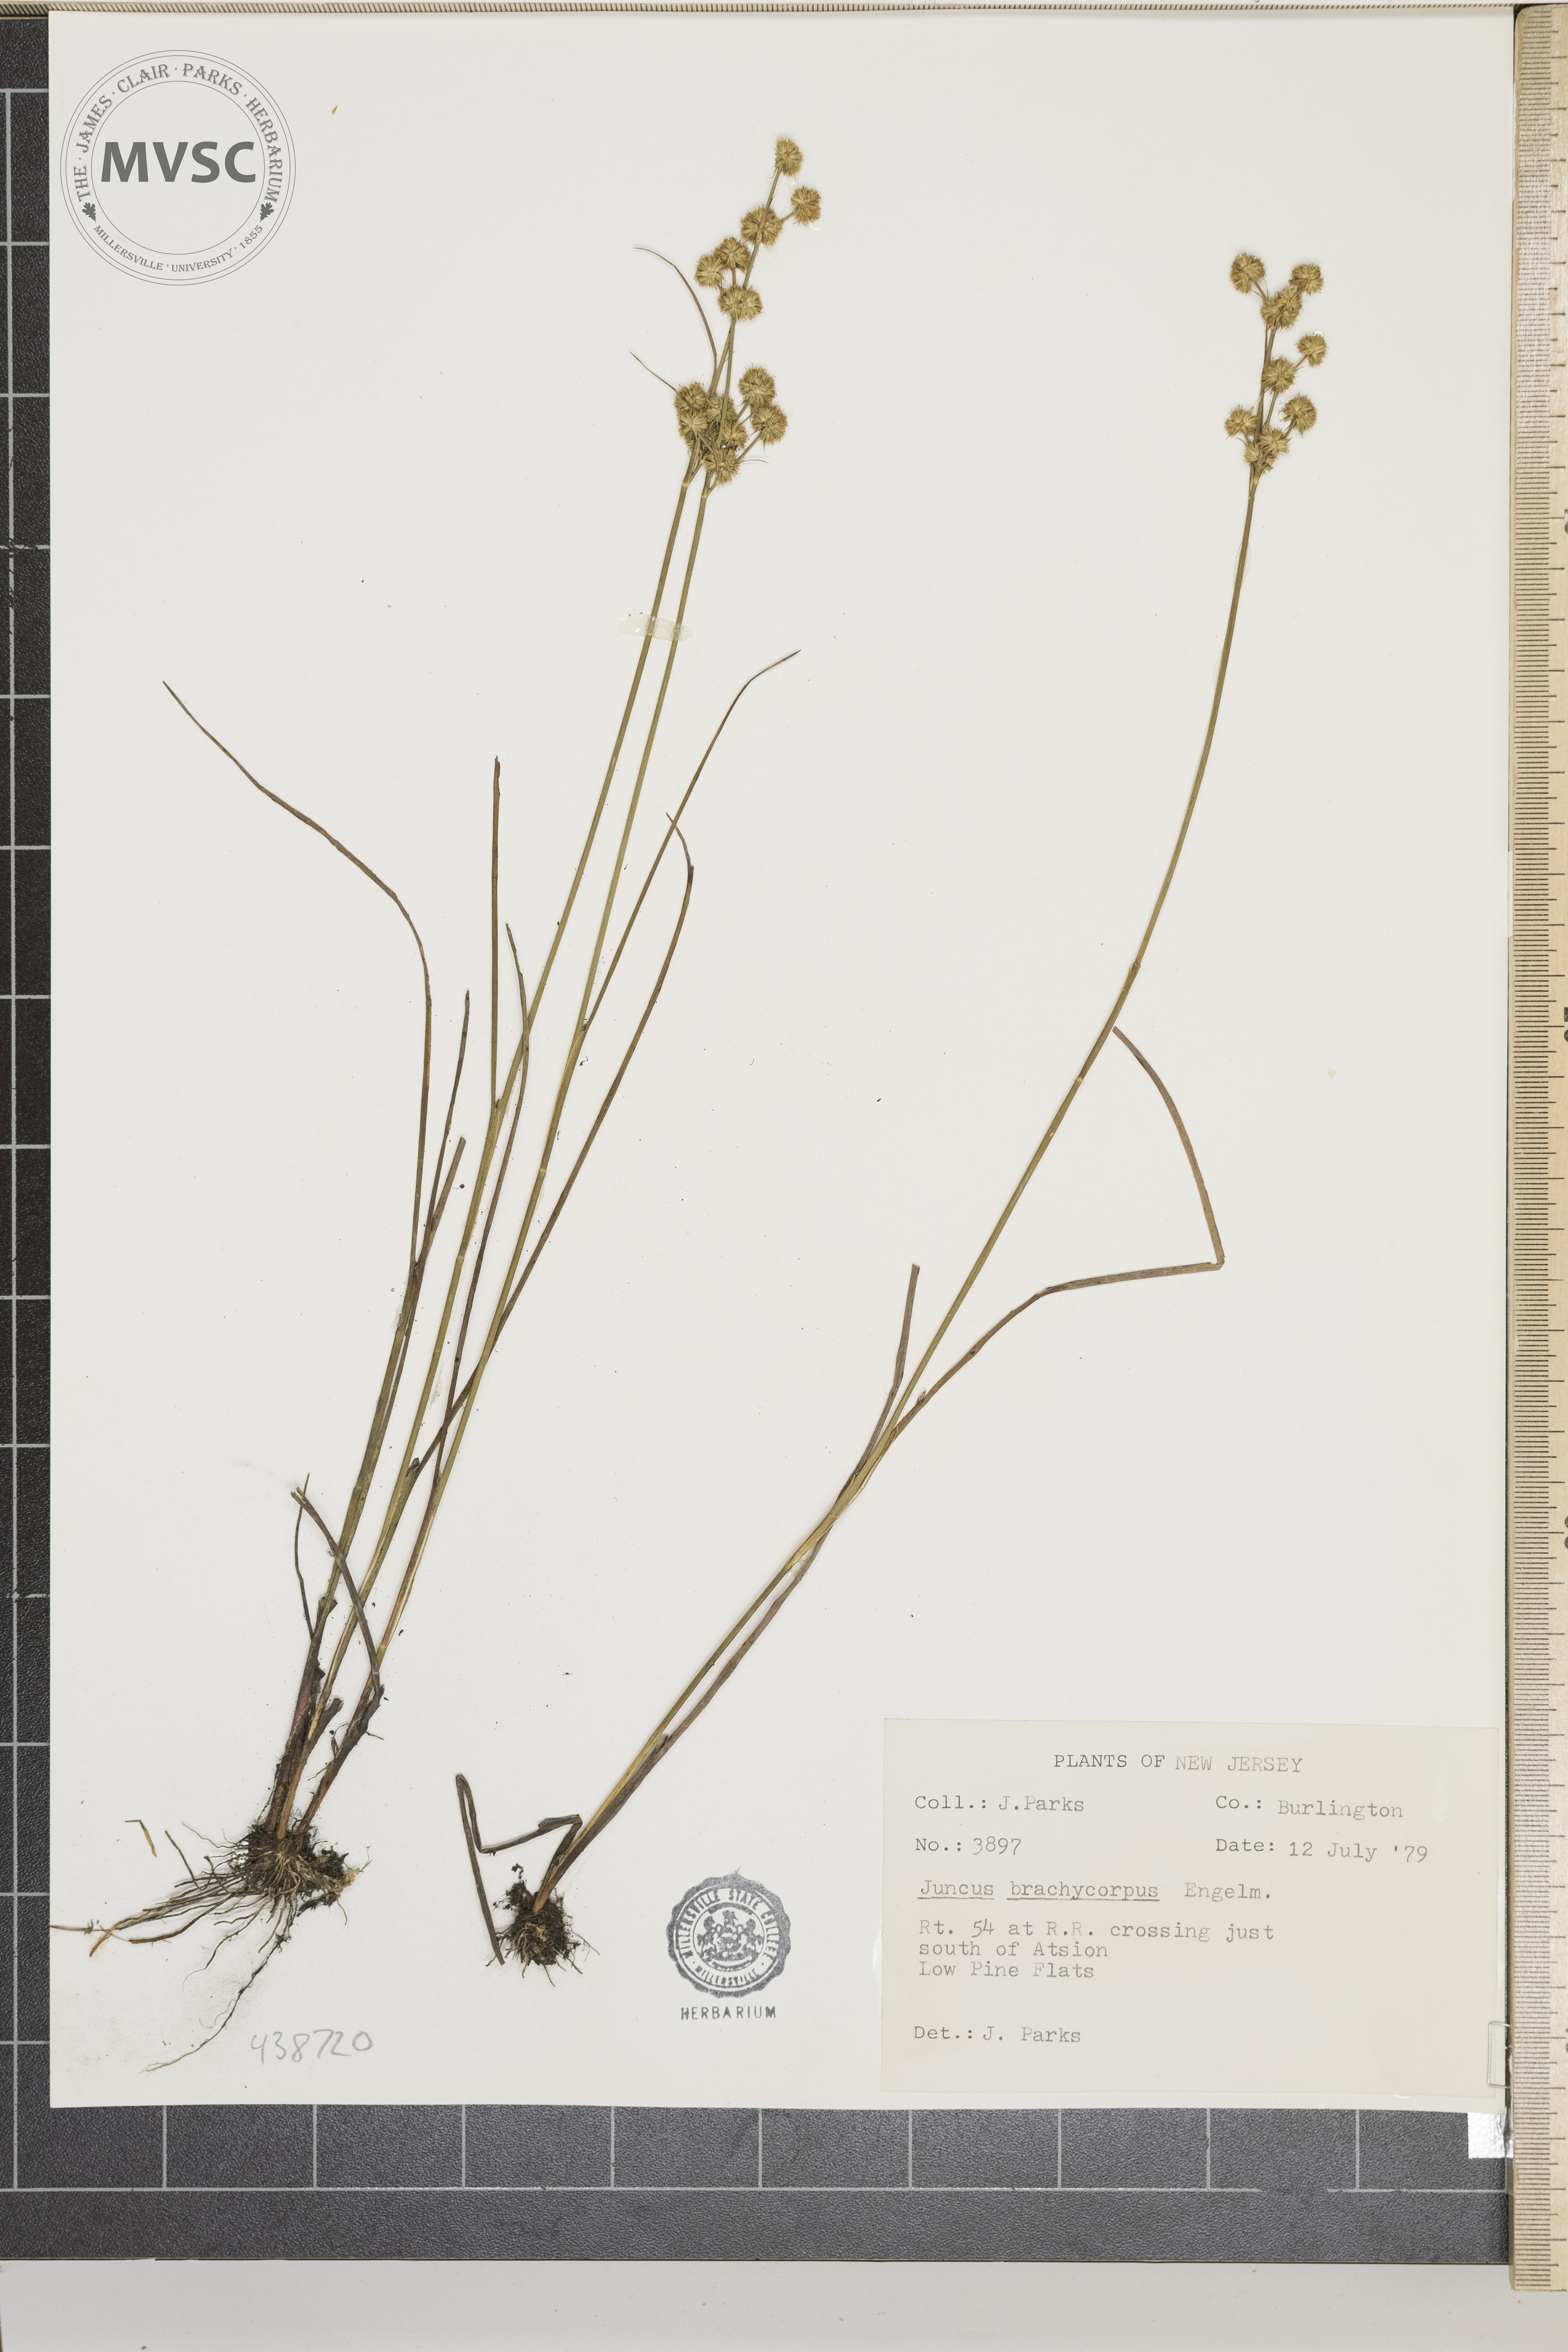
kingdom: Plantae
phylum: Tracheophyta
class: Liliopsida
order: Poales
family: Juncaceae
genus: Juncus
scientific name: Juncus brachycarpus
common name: Shore rush
